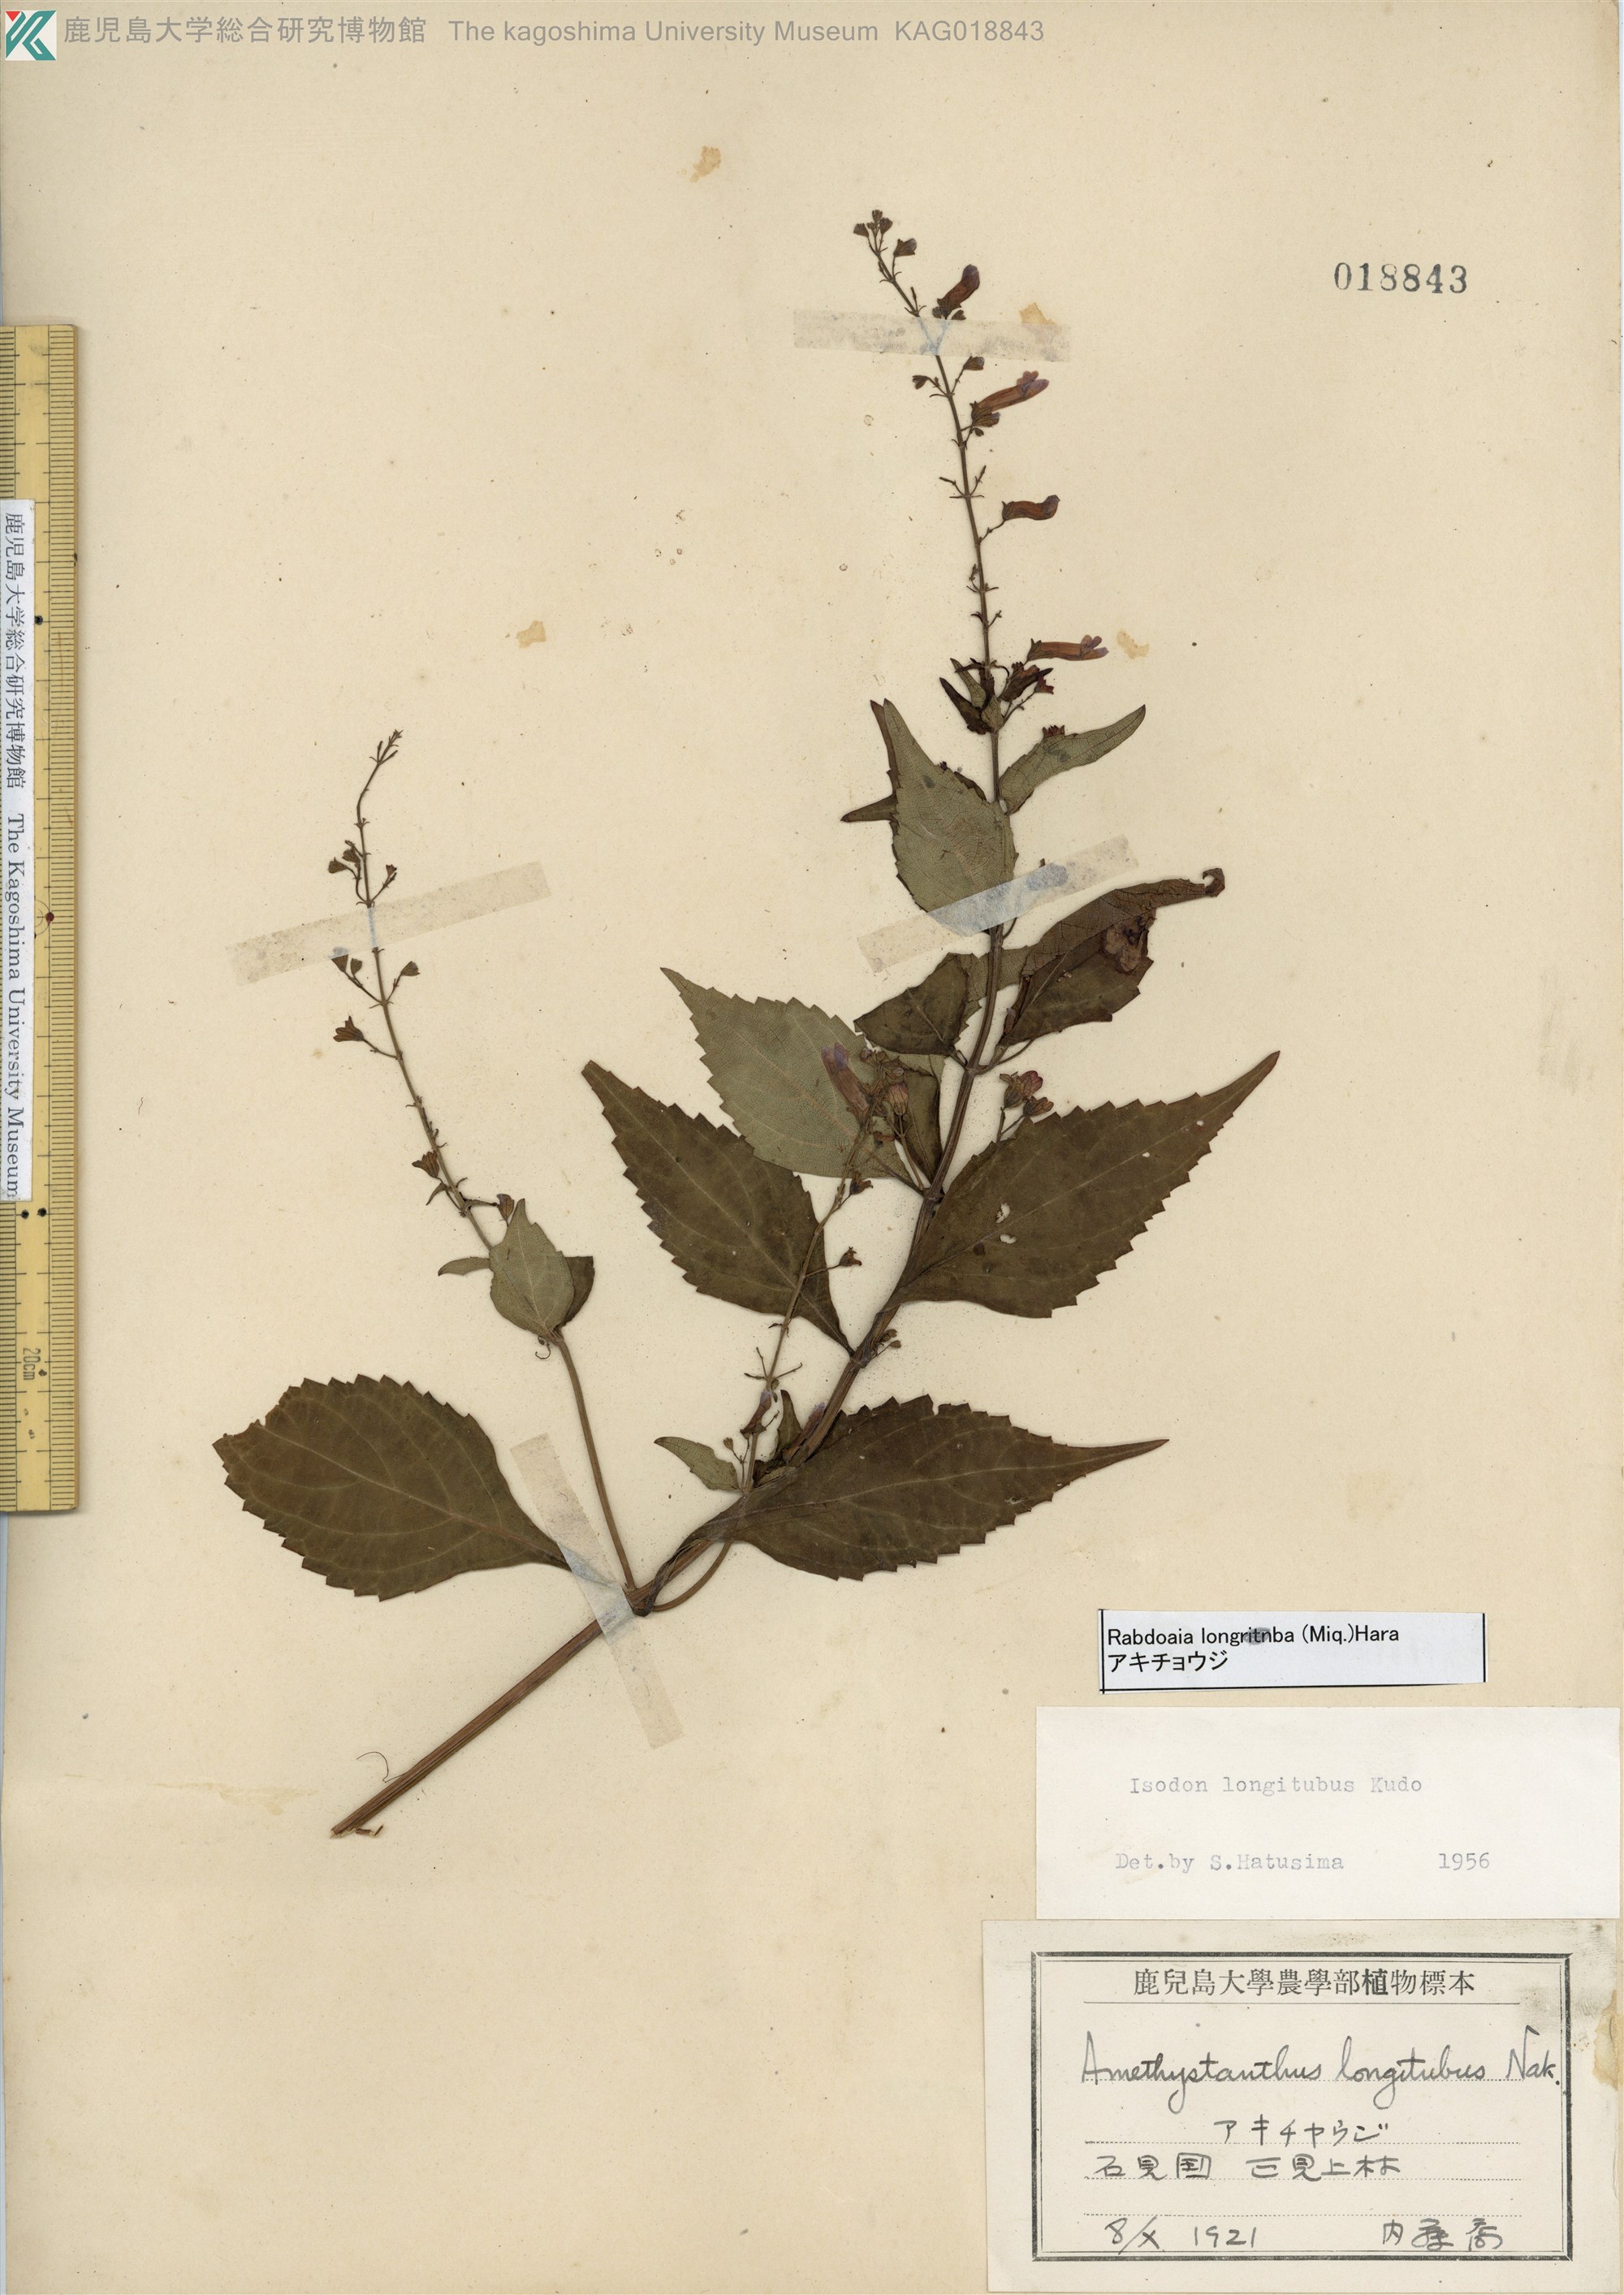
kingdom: Plantae
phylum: Tracheophyta
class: Magnoliopsida
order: Lamiales
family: Lamiaceae
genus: Isodon
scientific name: Isodon longitubus
